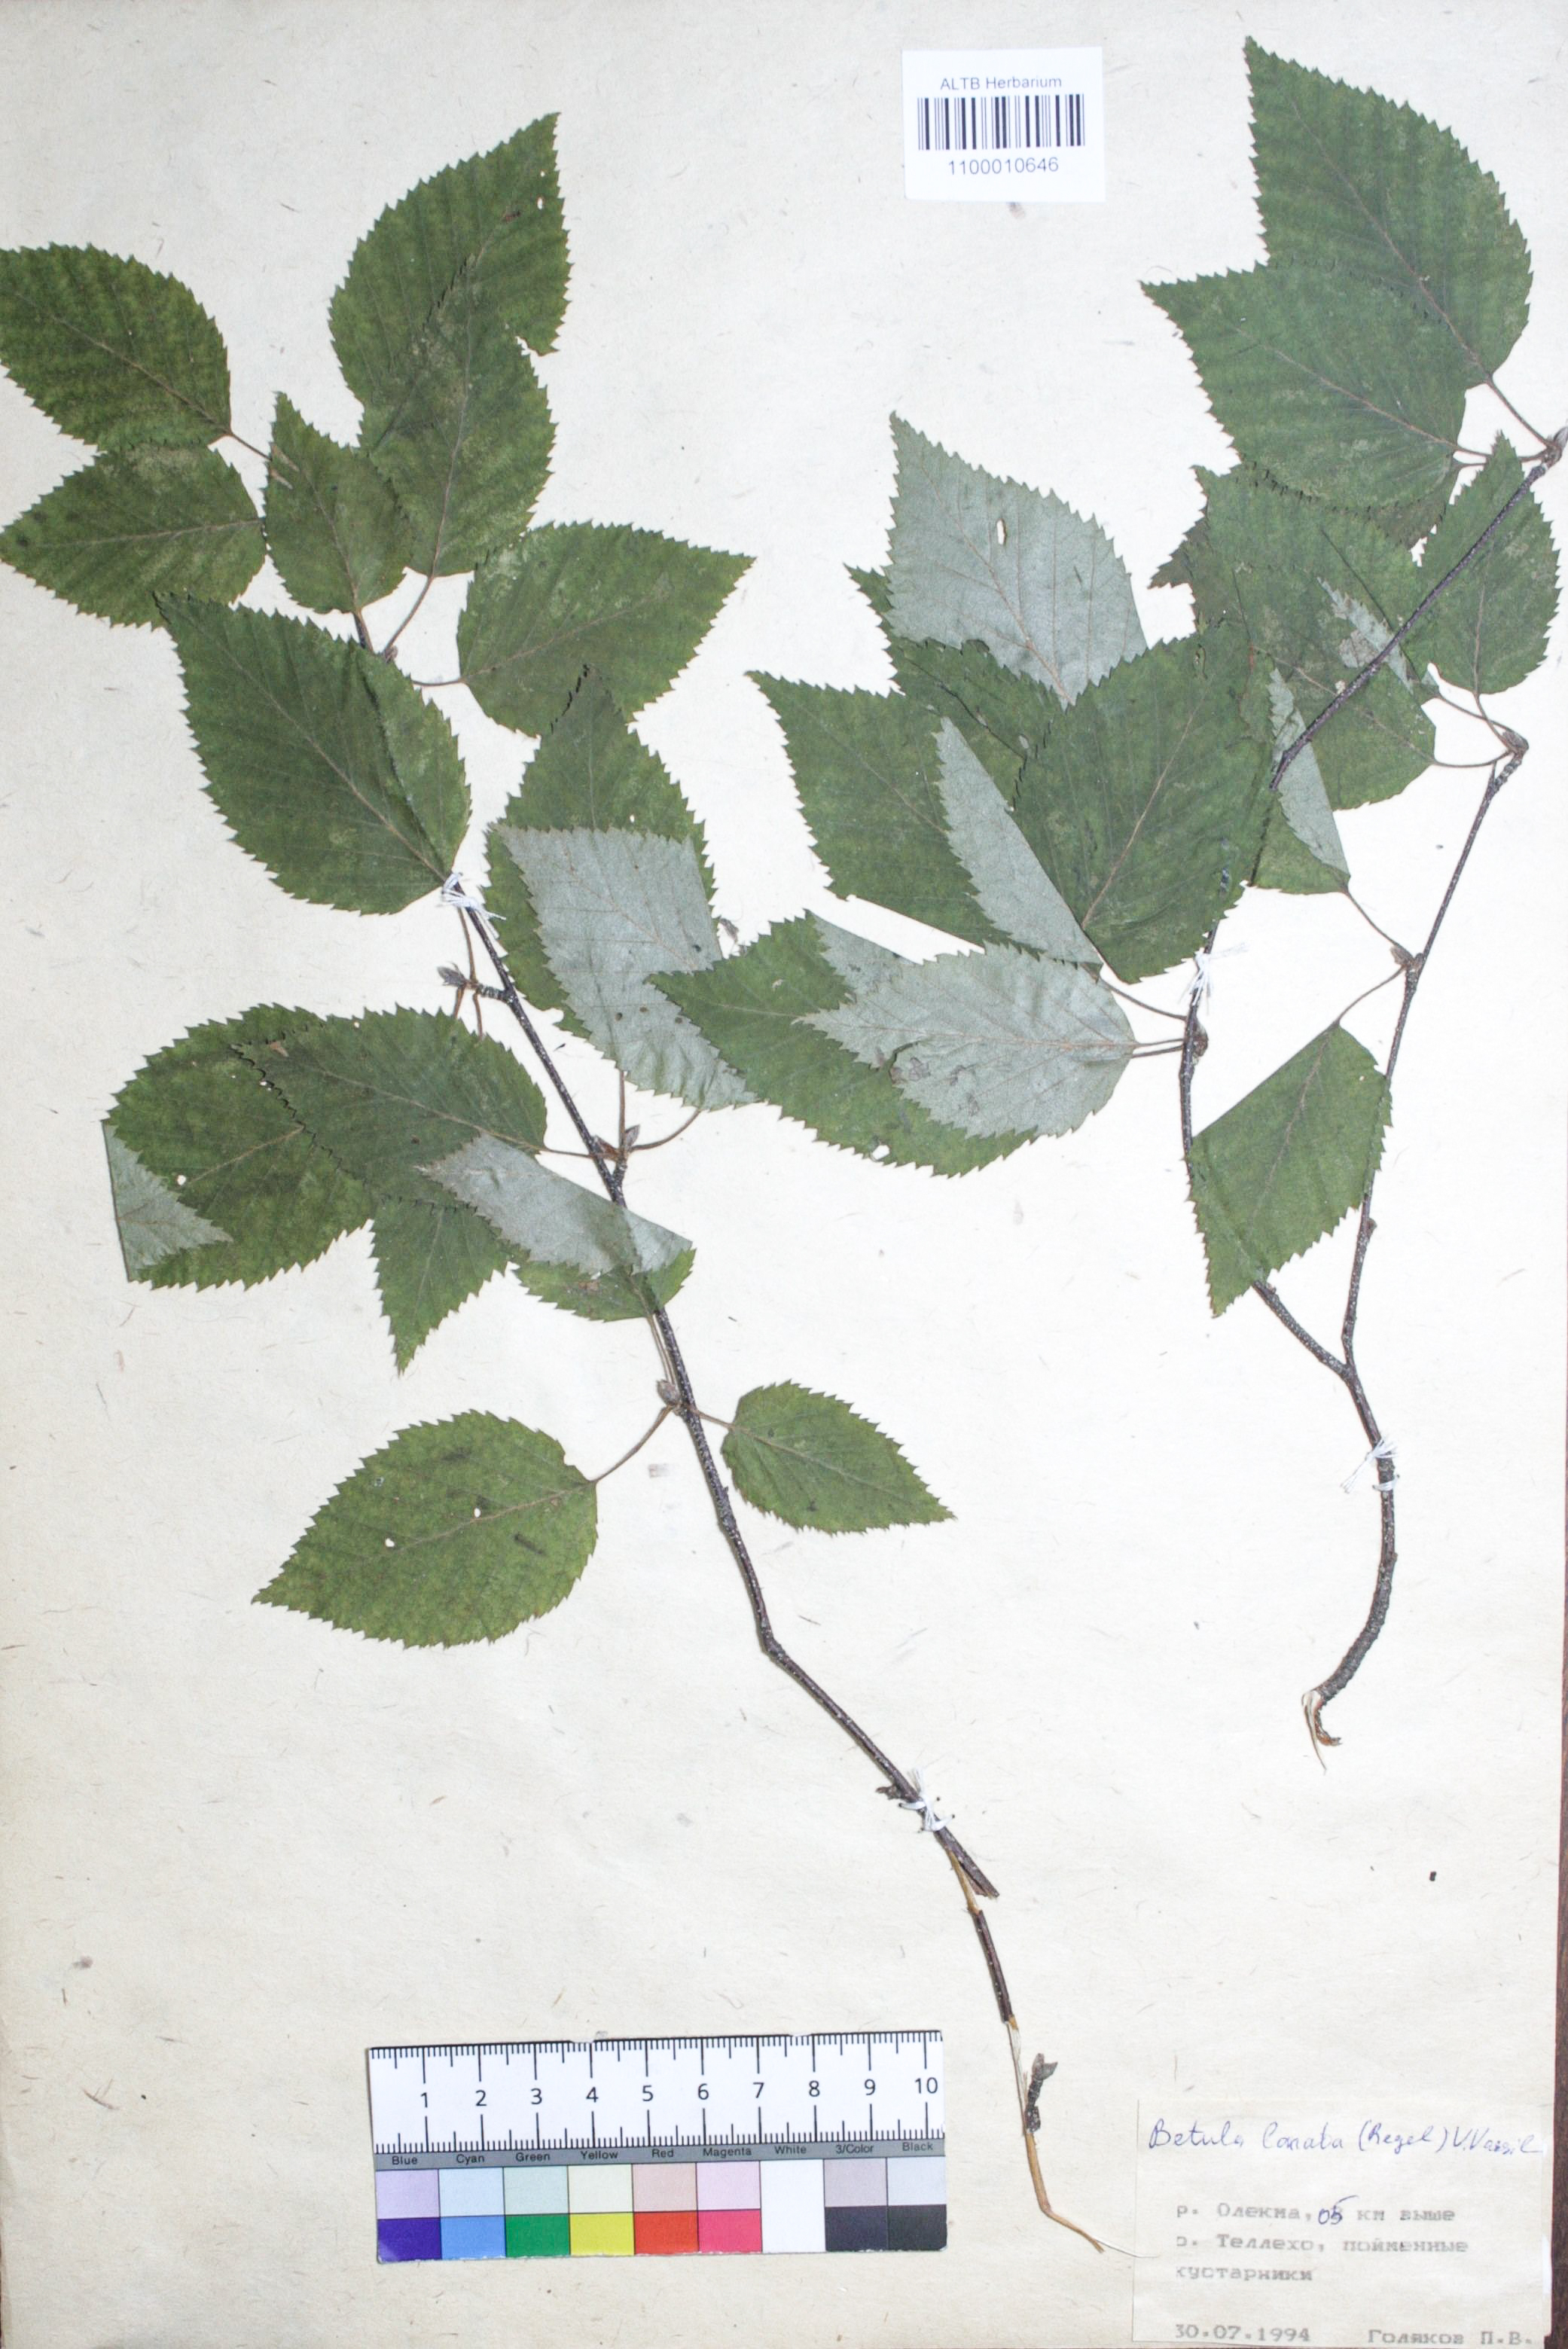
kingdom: Plantae
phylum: Tracheophyta
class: Magnoliopsida
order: Fagales
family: Betulaceae
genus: Betula
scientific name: Betula ermanii
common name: Erman's birch
